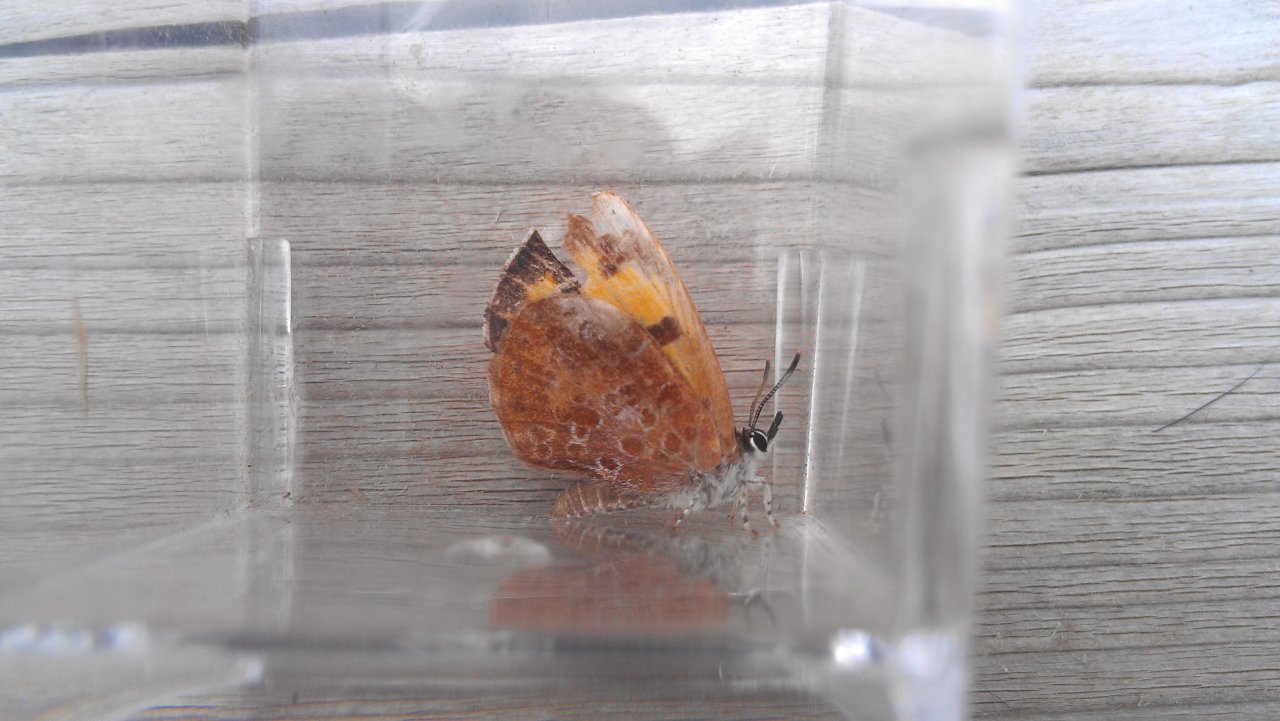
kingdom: Animalia
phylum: Arthropoda
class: Insecta
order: Lepidoptera
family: Lycaenidae
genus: Feniseca
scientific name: Feniseca tarquinius
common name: Harvester
